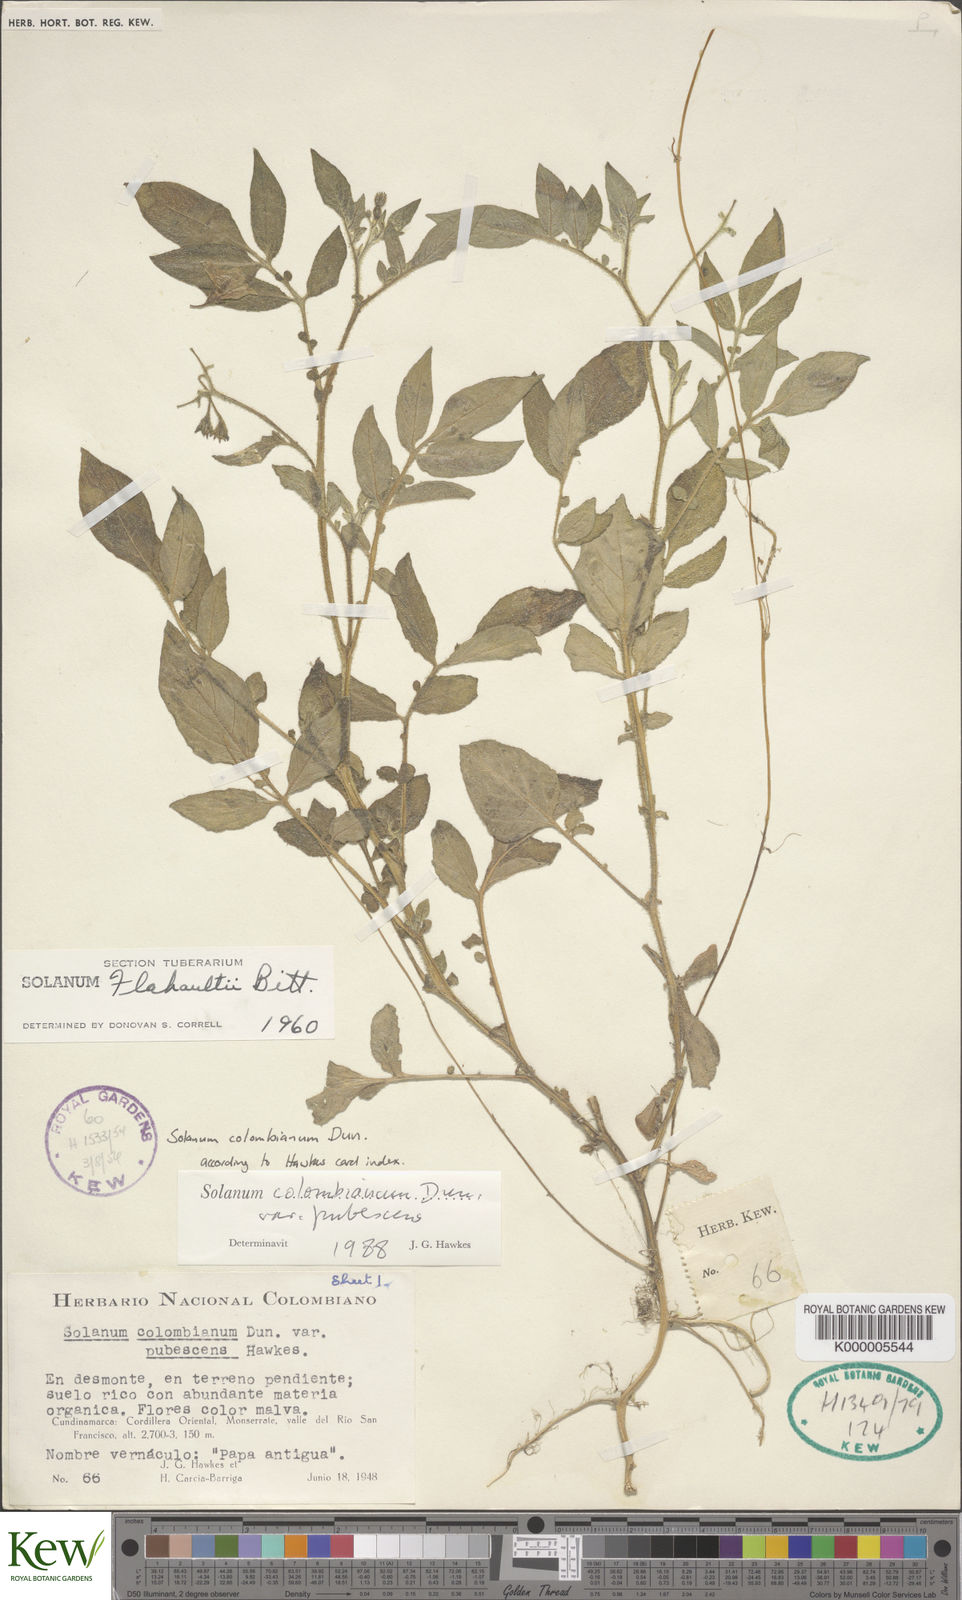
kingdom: Plantae
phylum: Tracheophyta
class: Magnoliopsida
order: Solanales
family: Solanaceae
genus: Solanum
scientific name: Solanum colombianum
